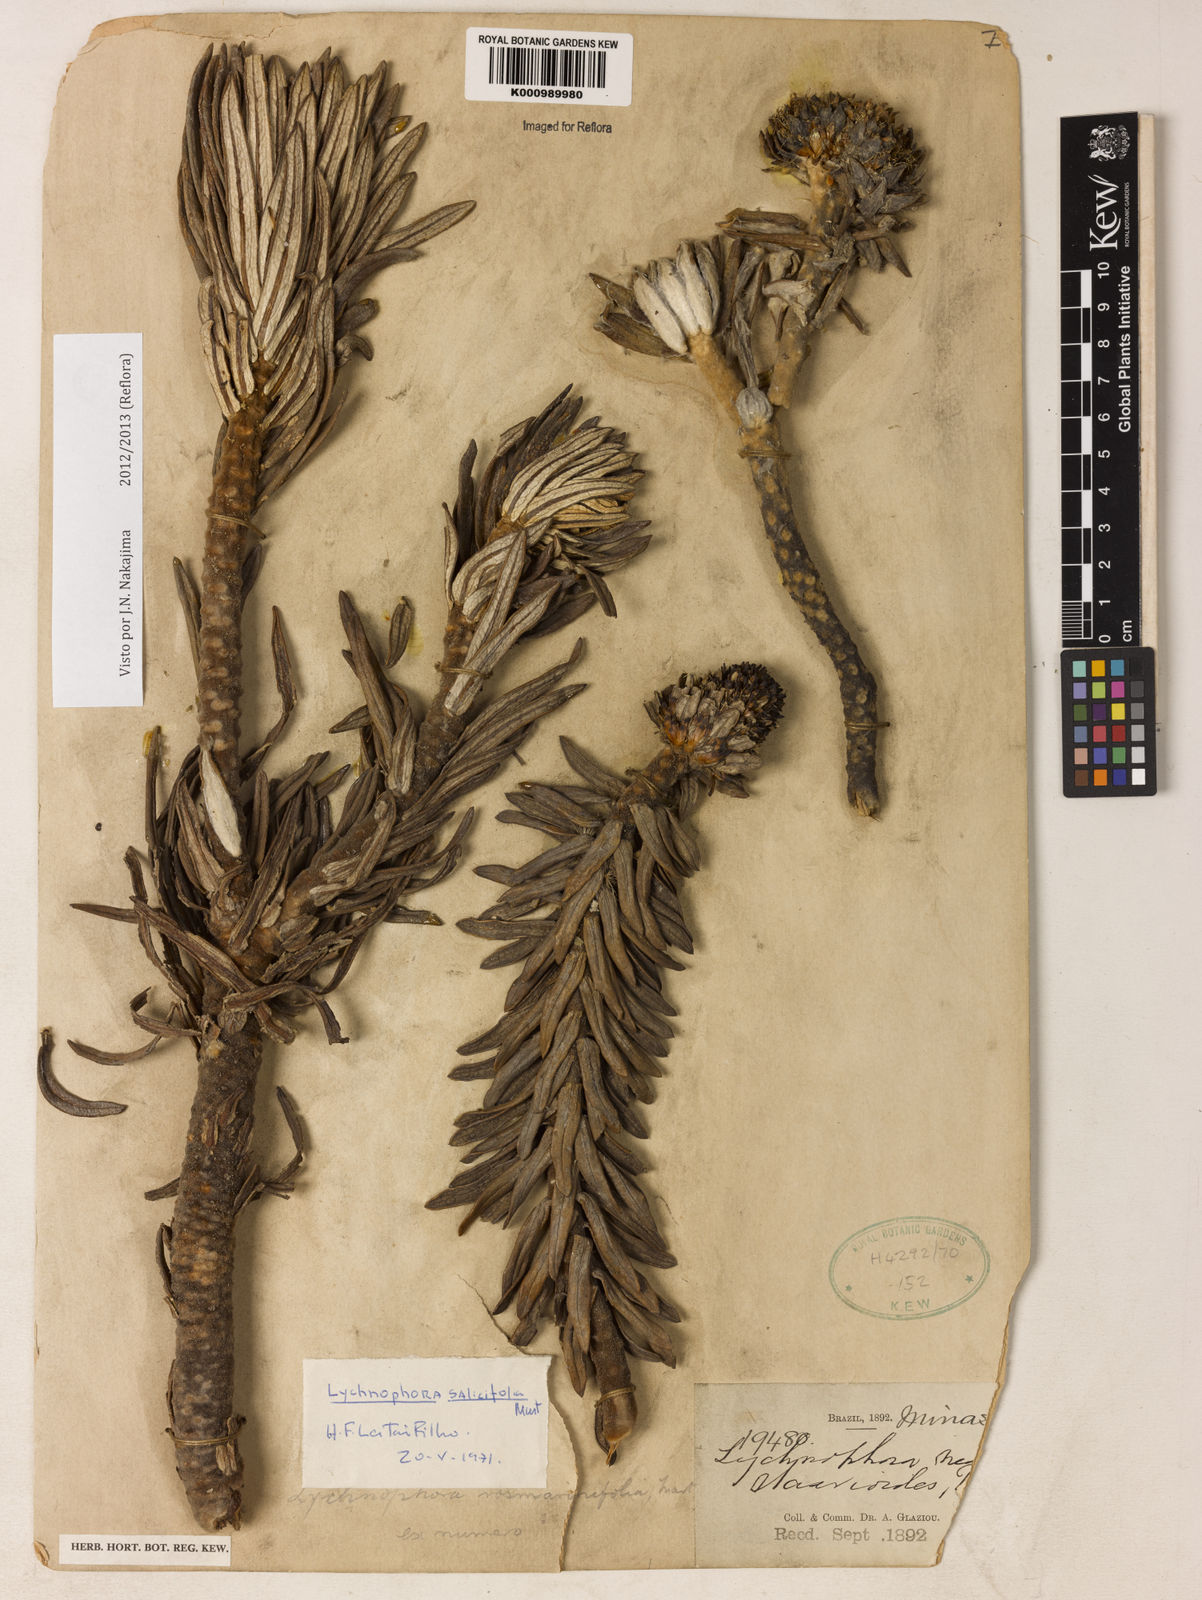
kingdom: Plantae
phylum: Tracheophyta
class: Magnoliopsida
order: Asterales
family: Asteraceae
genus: Lychnophora
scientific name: Lychnophora salicifolia
